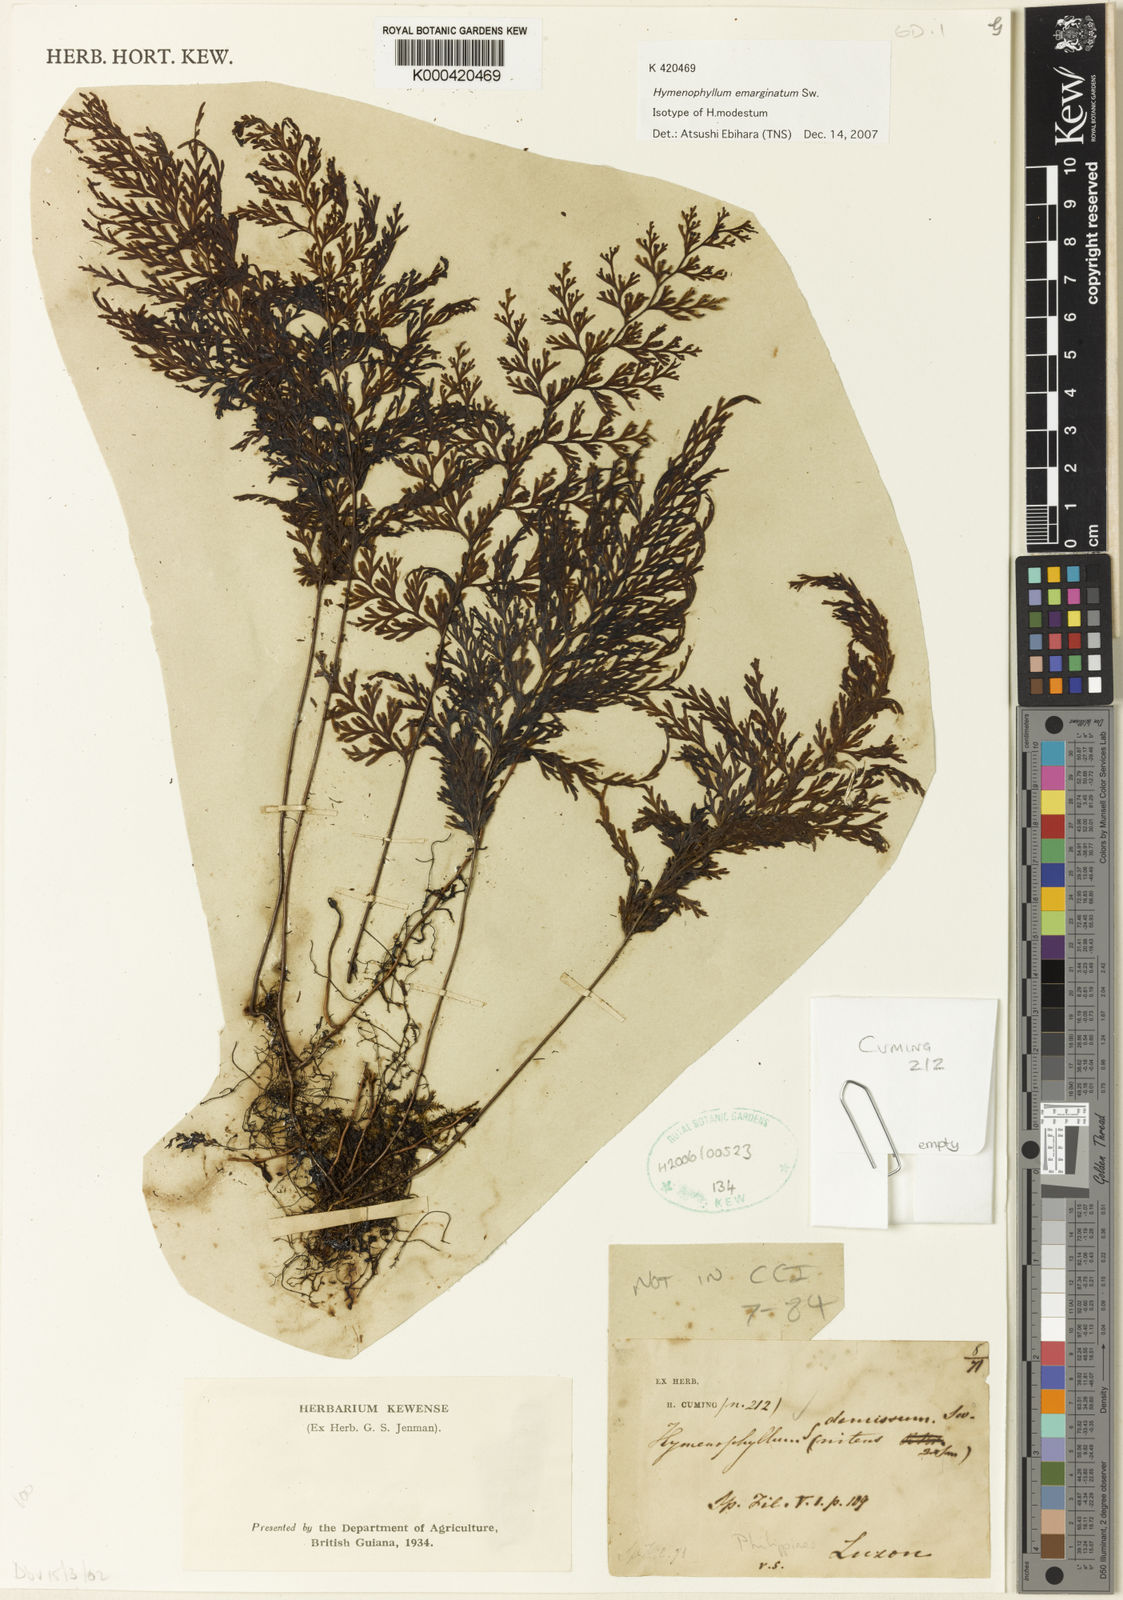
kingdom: Plantae
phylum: Tracheophyta
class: Polypodiopsida
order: Hymenophyllales
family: Hymenophyllaceae
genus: Hymenophyllum
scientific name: Hymenophyllum emarginatum
